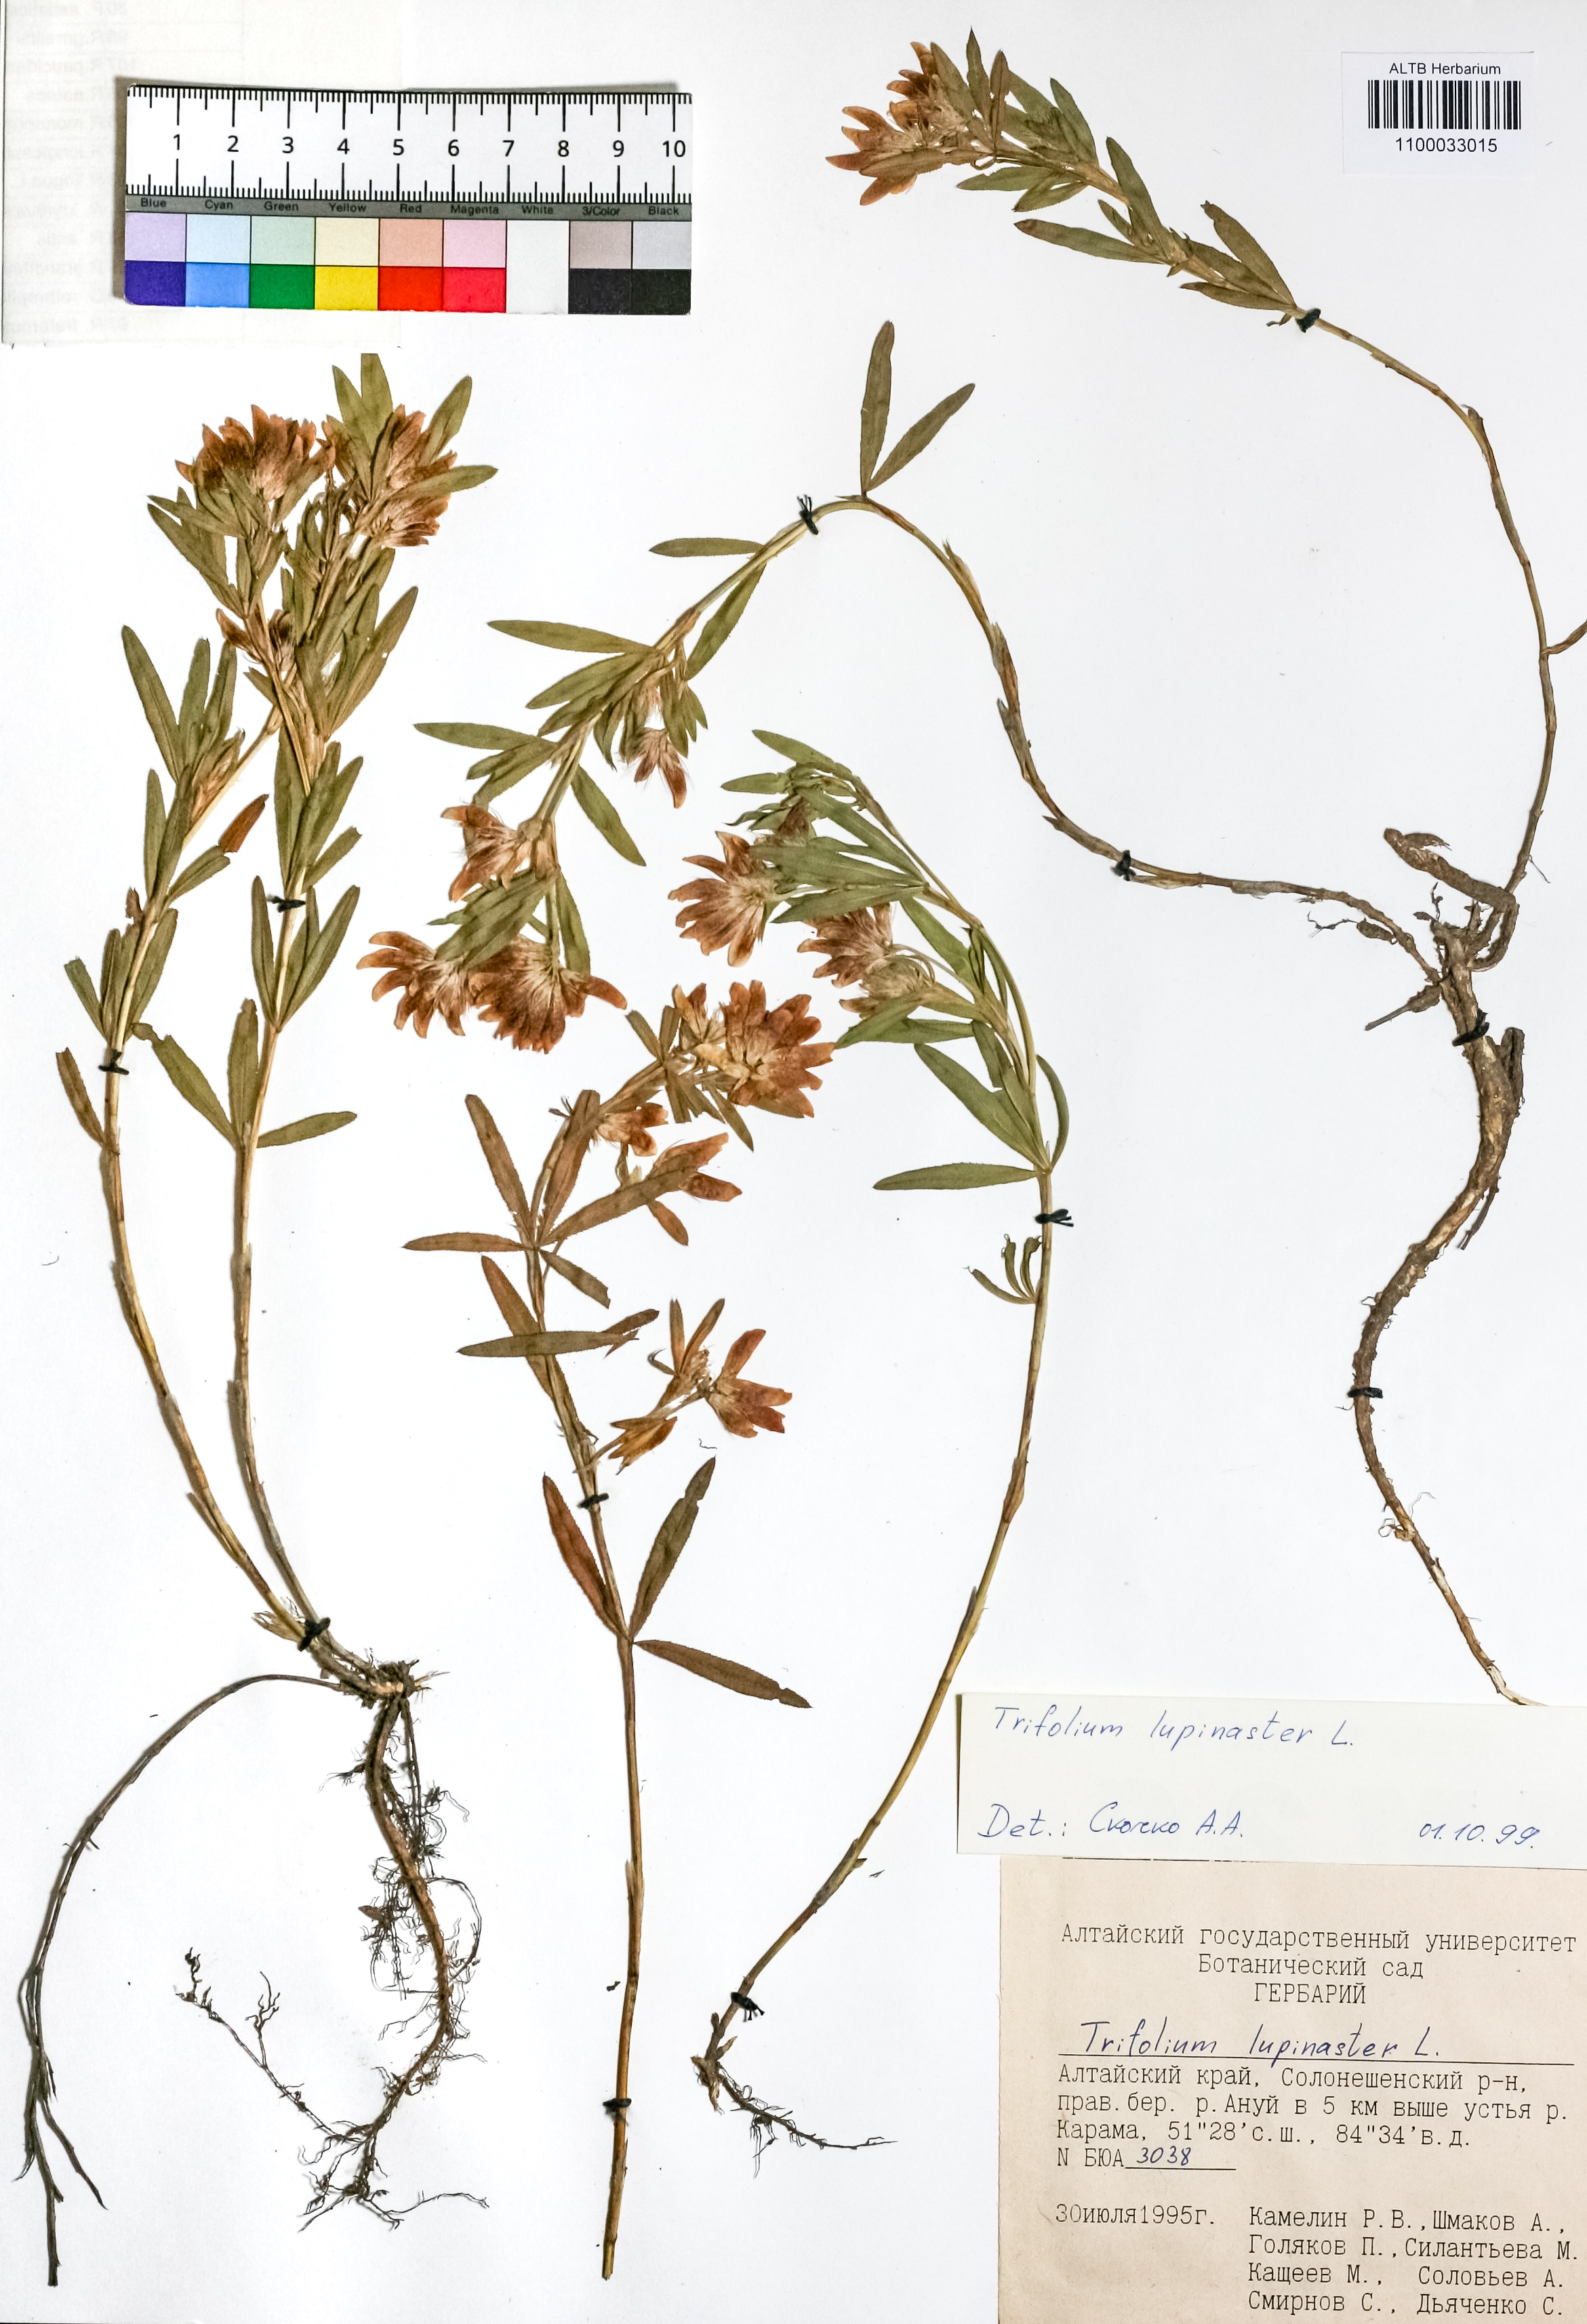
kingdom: Plantae
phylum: Tracheophyta
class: Magnoliopsida
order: Fabales
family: Fabaceae
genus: Trifolium
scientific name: Trifolium lupinaster
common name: Lupine clover
